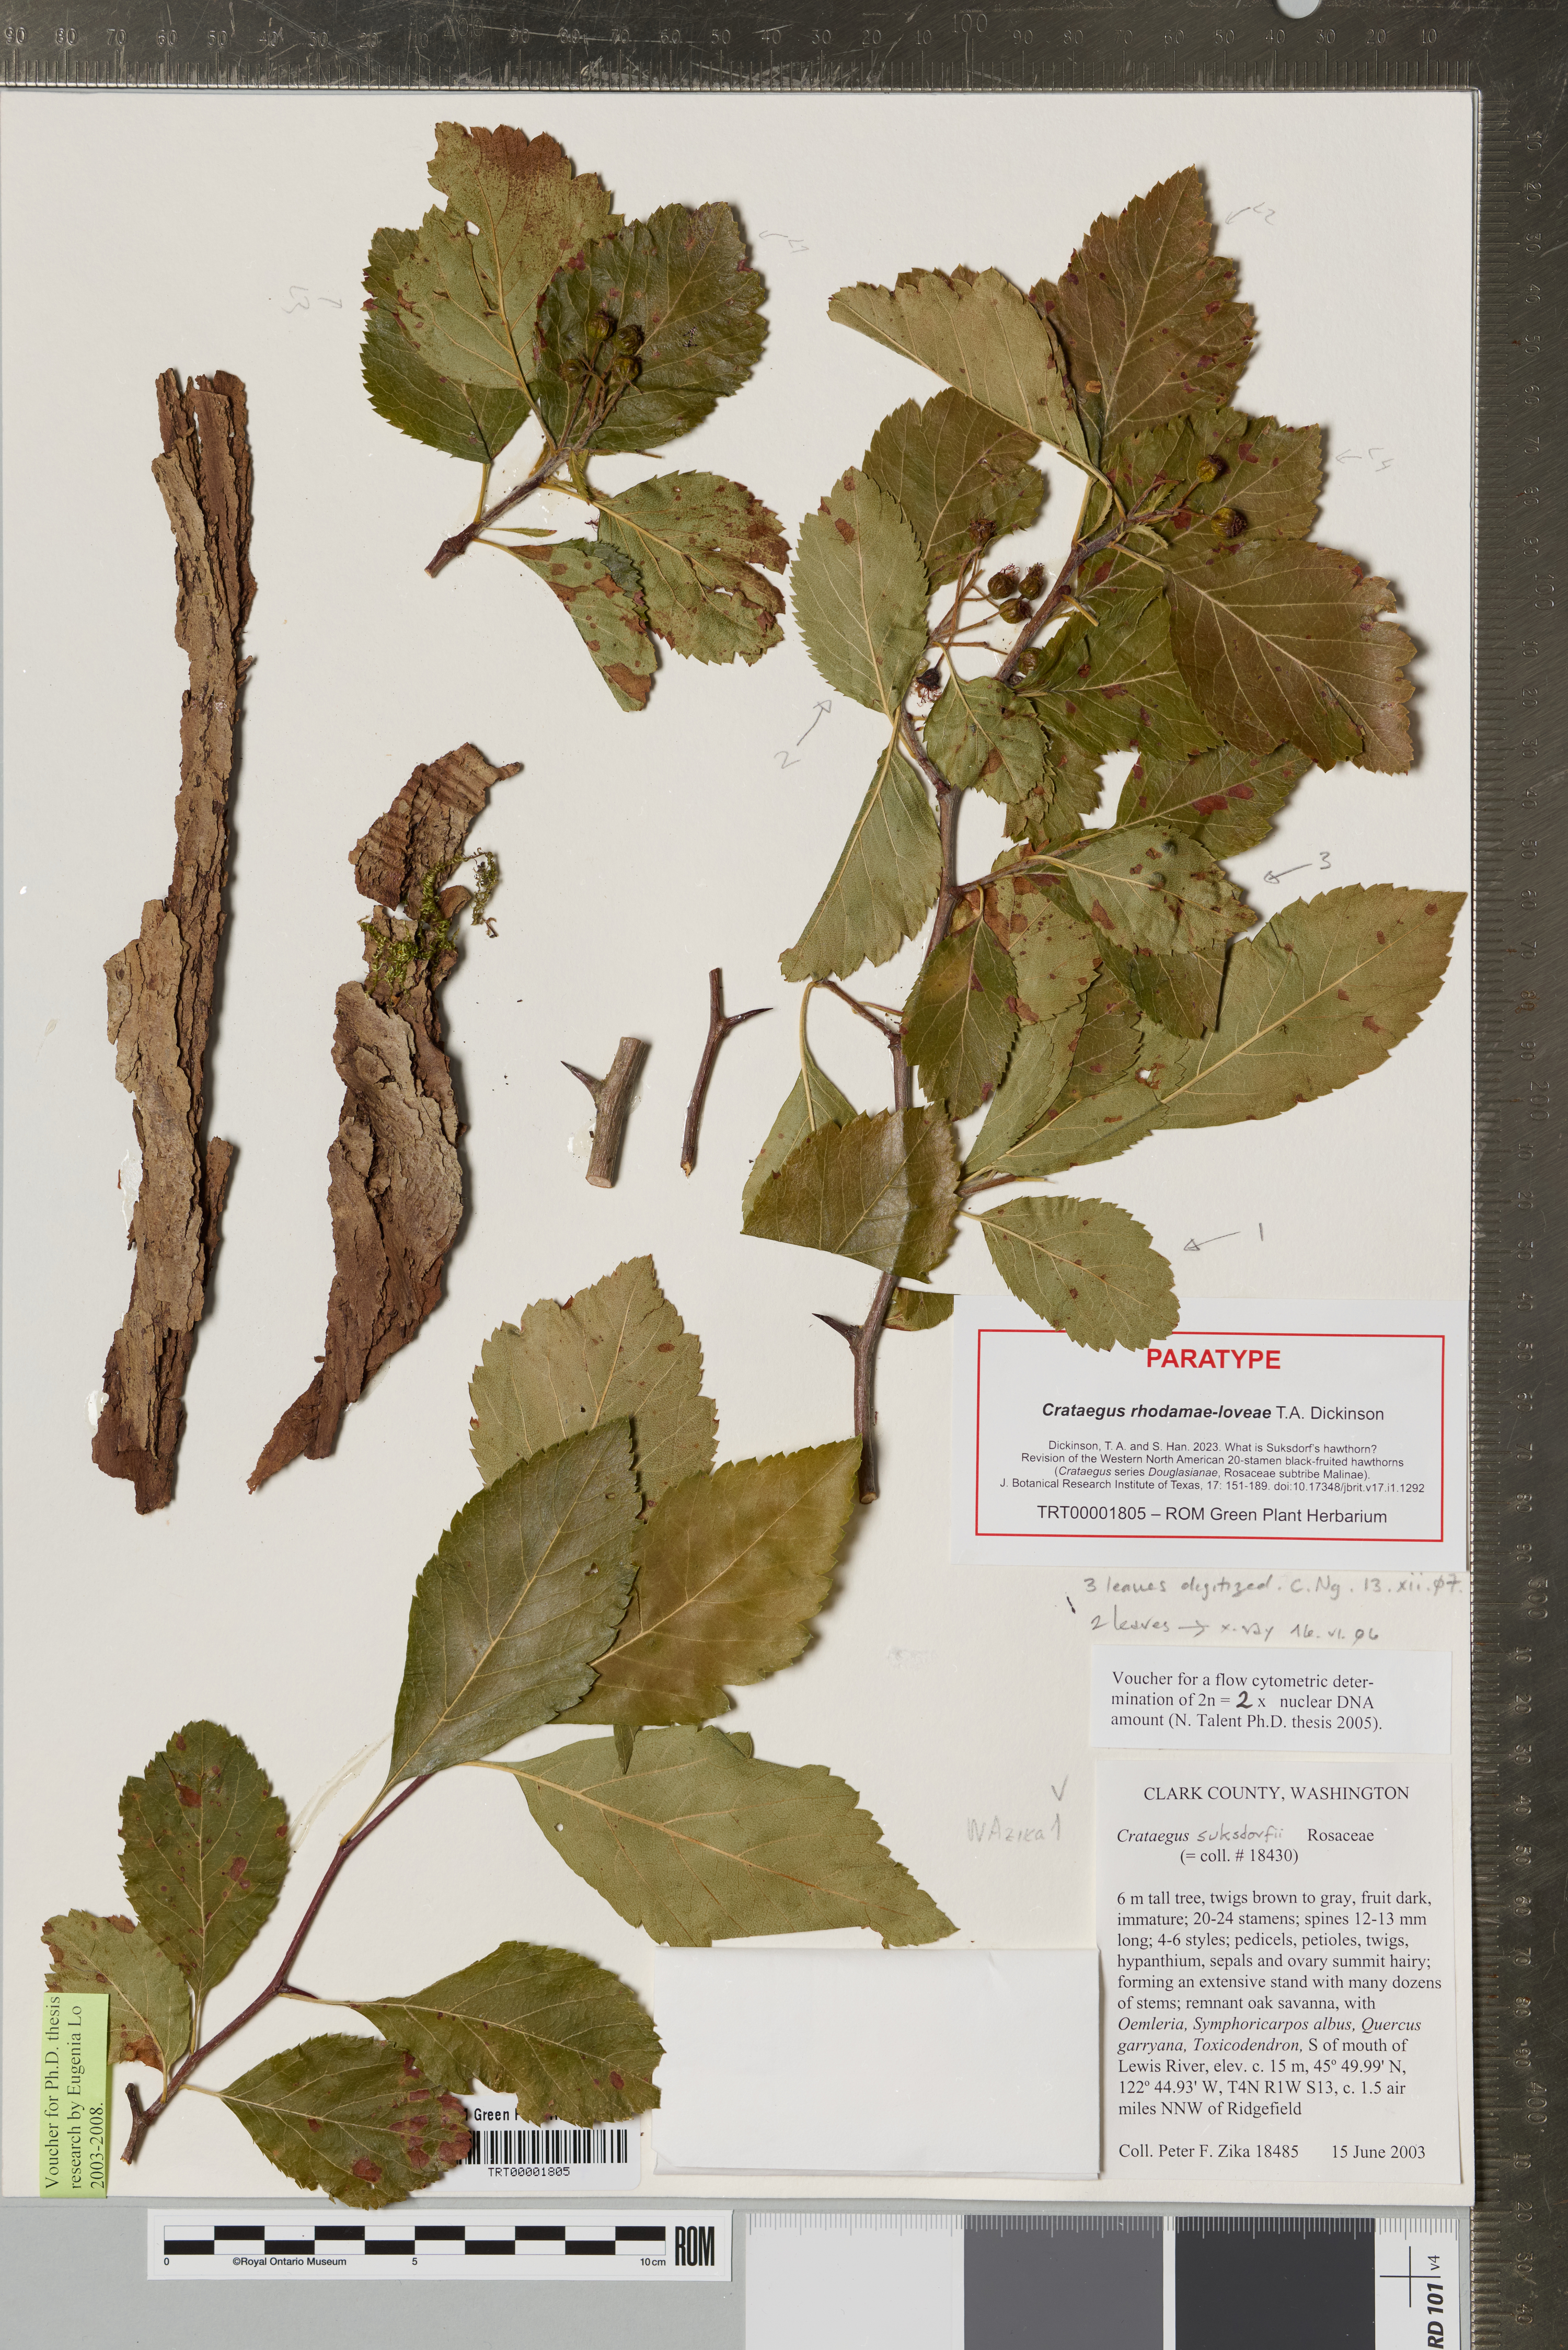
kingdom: Plantae
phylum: Tracheophyta
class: Magnoliopsida
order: Rosales
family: Rosaceae
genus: Crataegus
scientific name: Crataegus gaylussacia
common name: Huckleberry hawthorn
